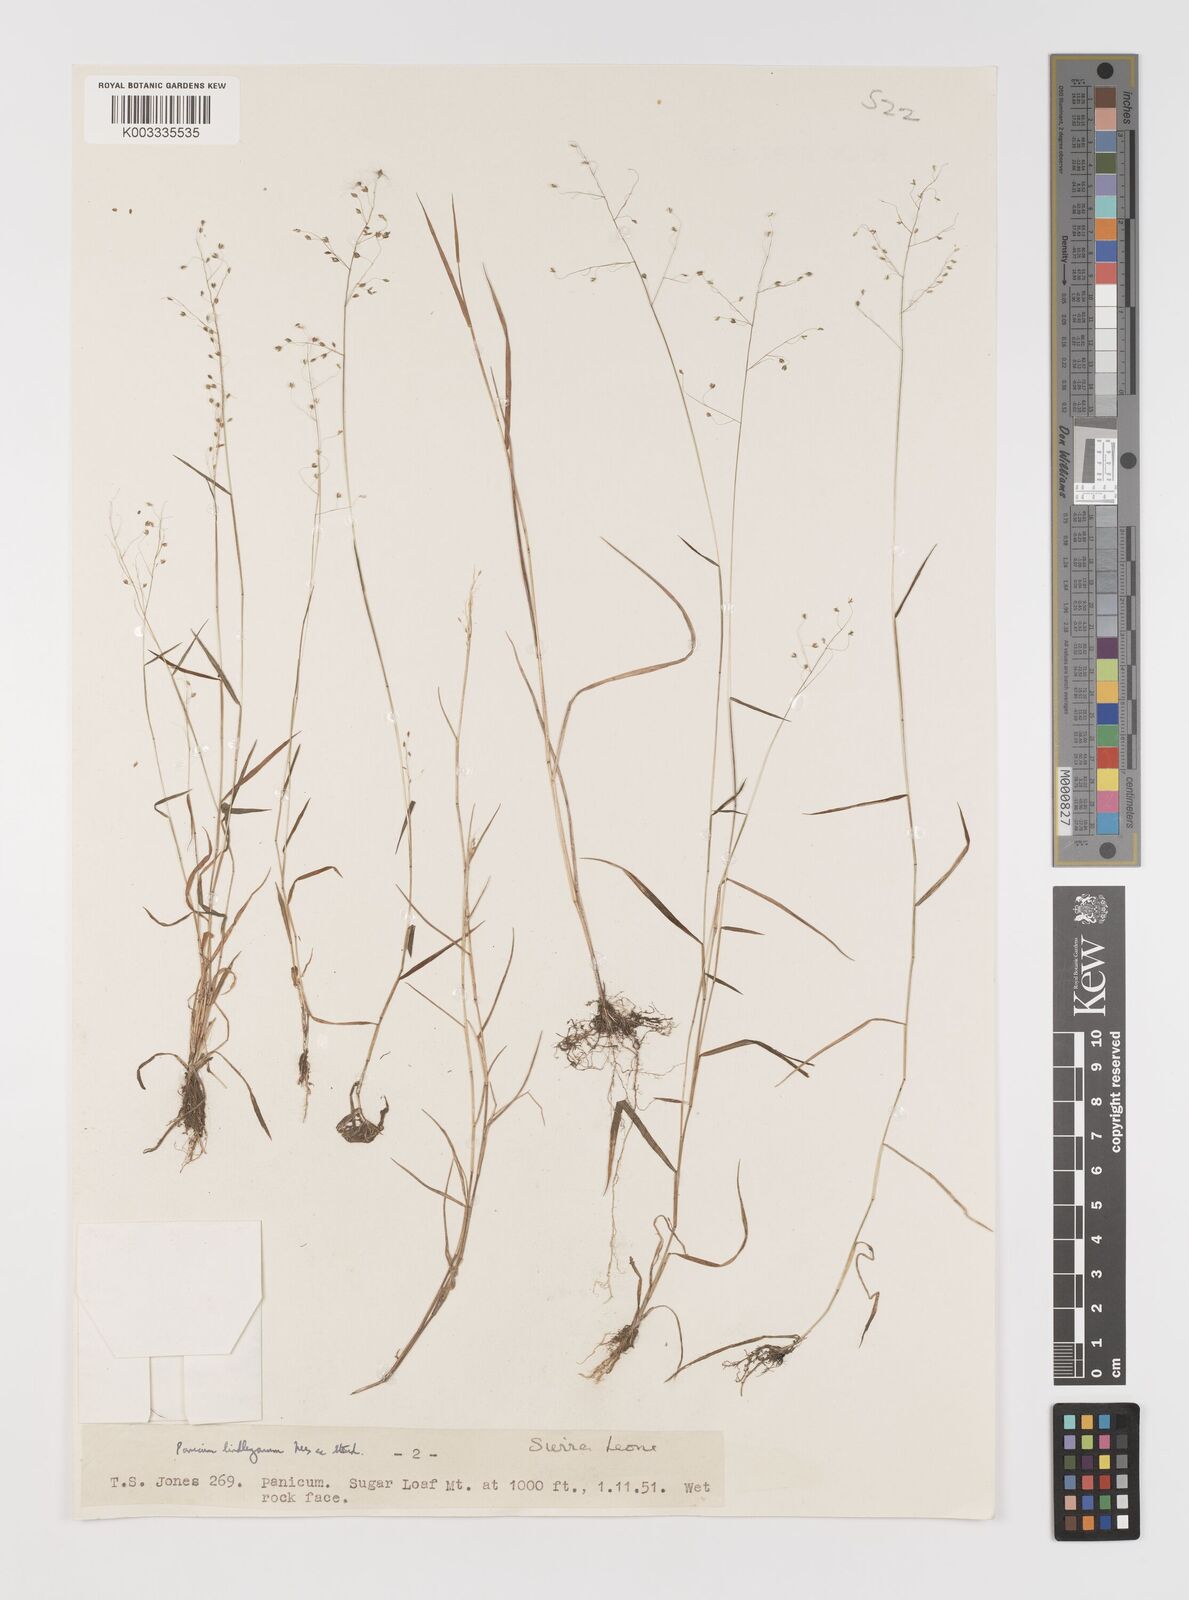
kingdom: Plantae
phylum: Tracheophyta
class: Liliopsida
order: Poales
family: Poaceae
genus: Trichanthecium
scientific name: Trichanthecium tenellum
